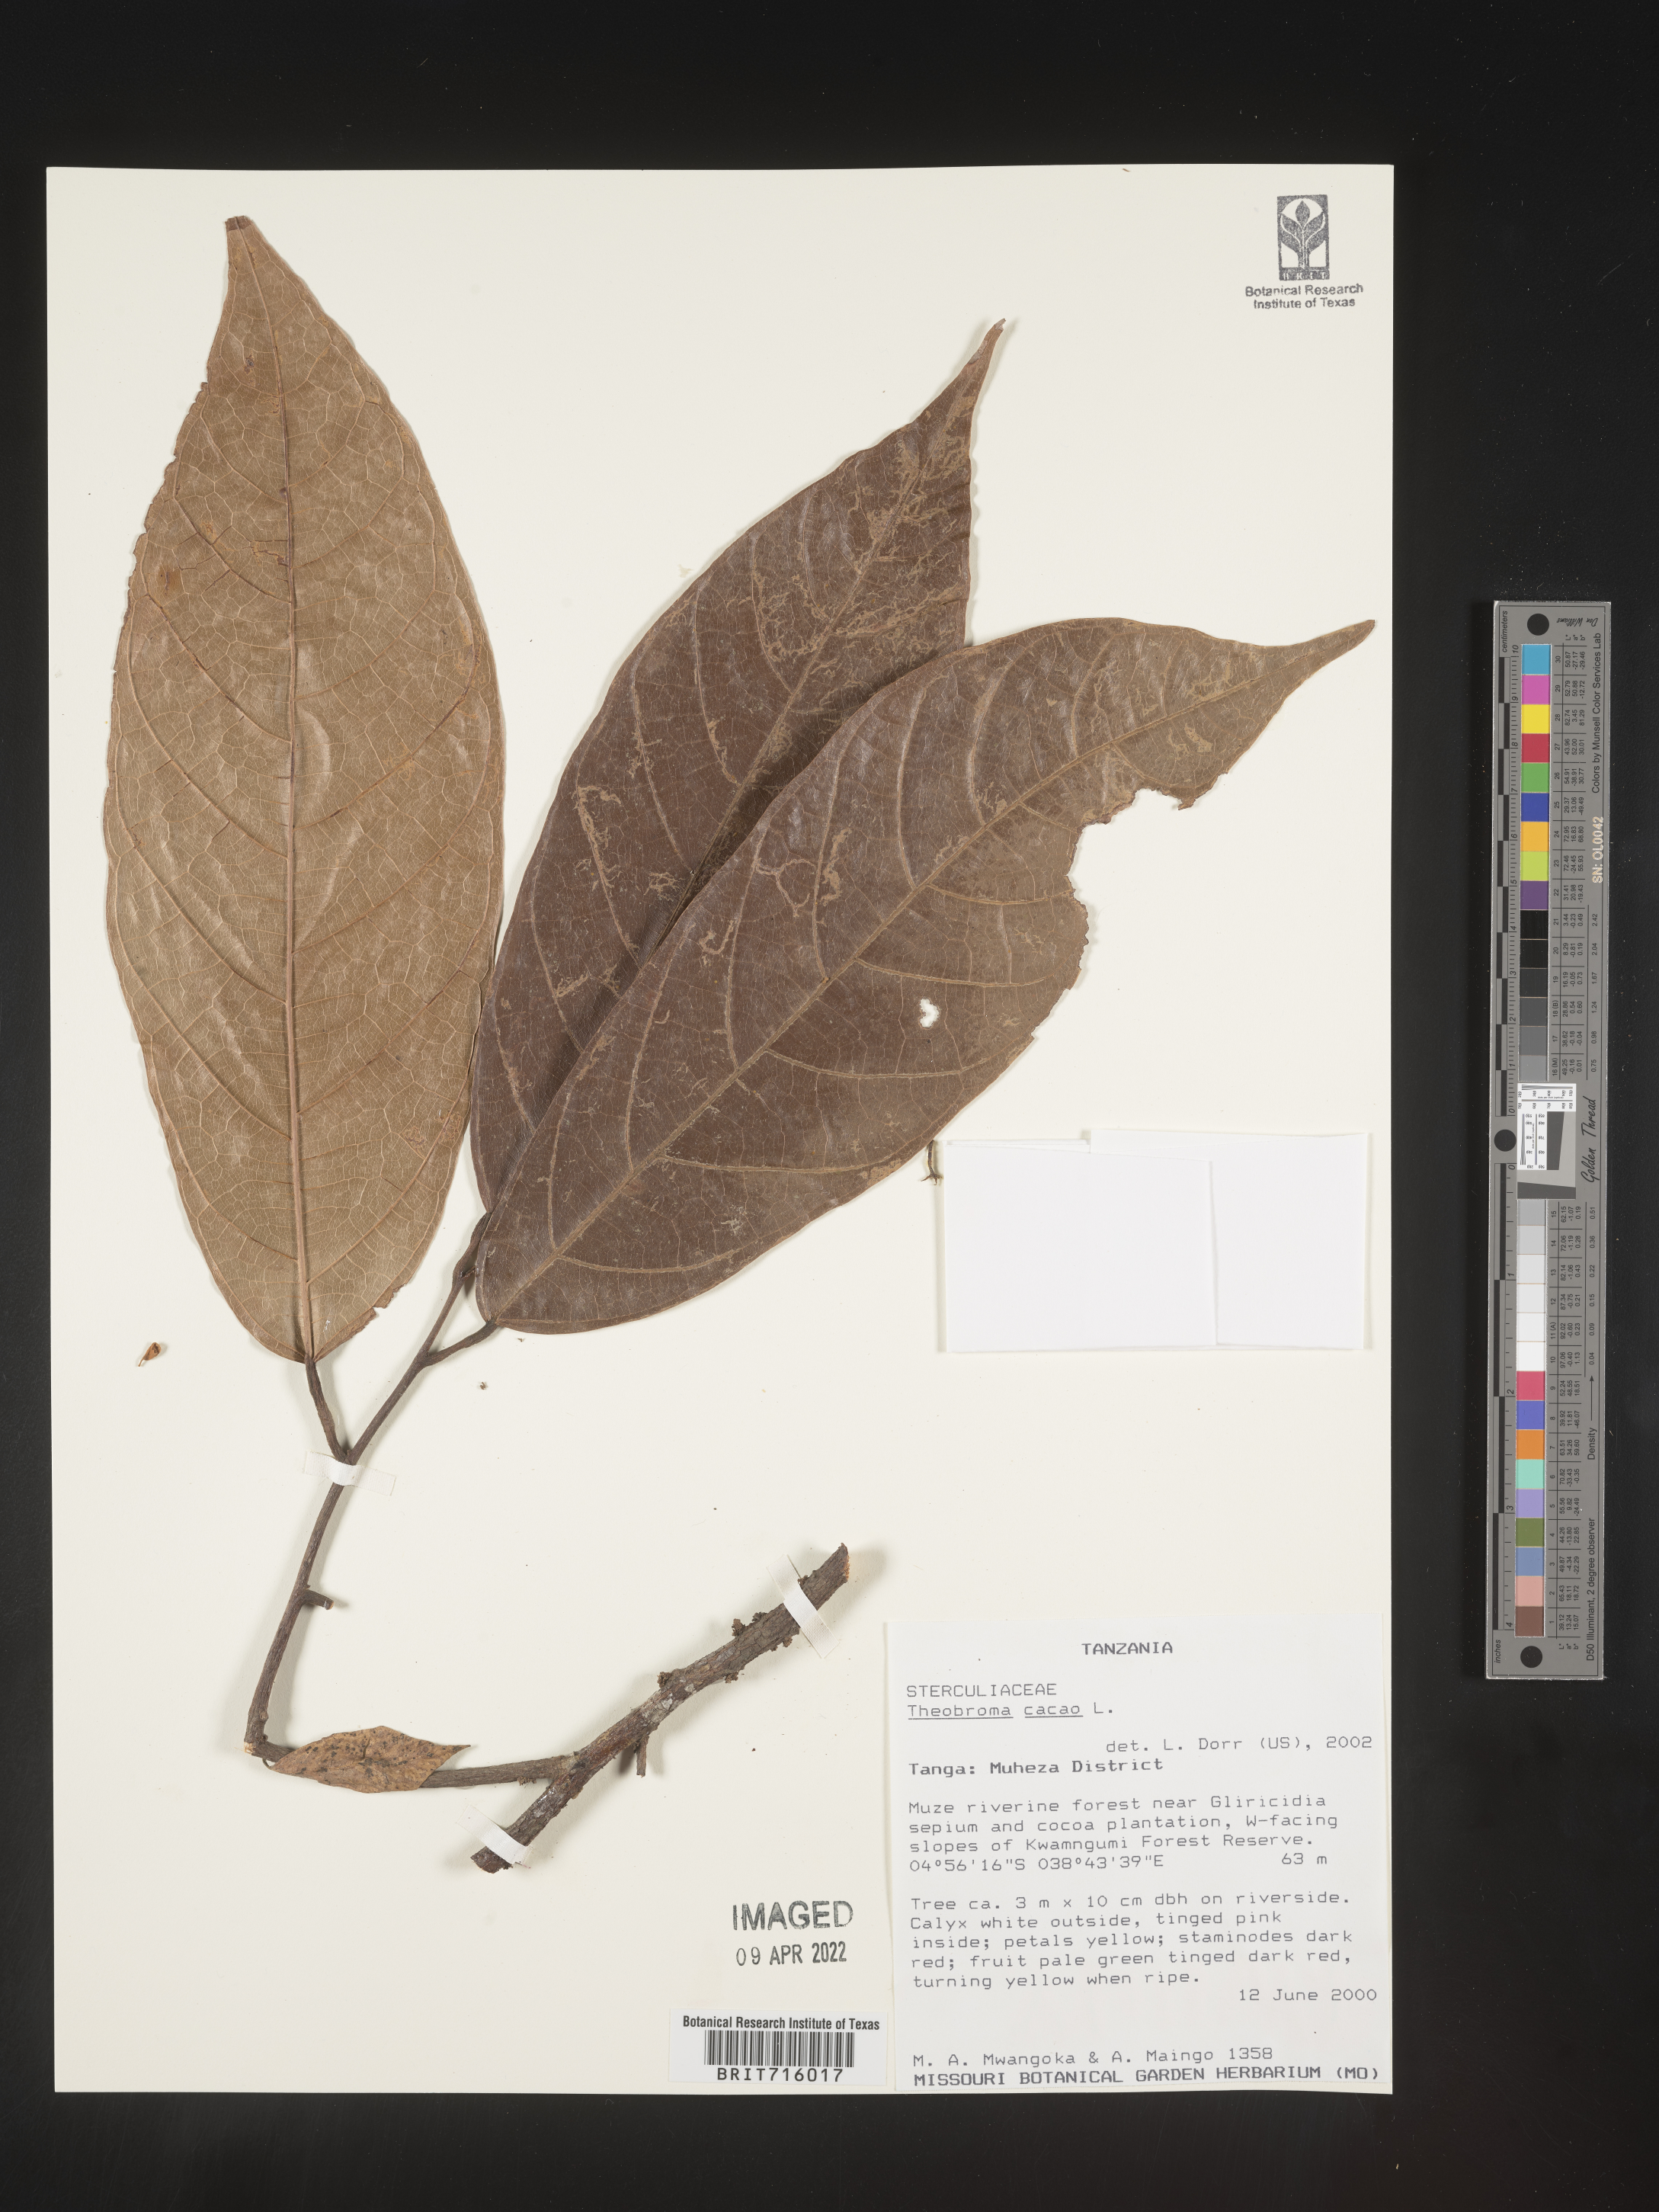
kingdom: Plantae
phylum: Tracheophyta
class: Magnoliopsida
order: Malvales
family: Malvaceae
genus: Theobroma
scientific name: Theobroma
